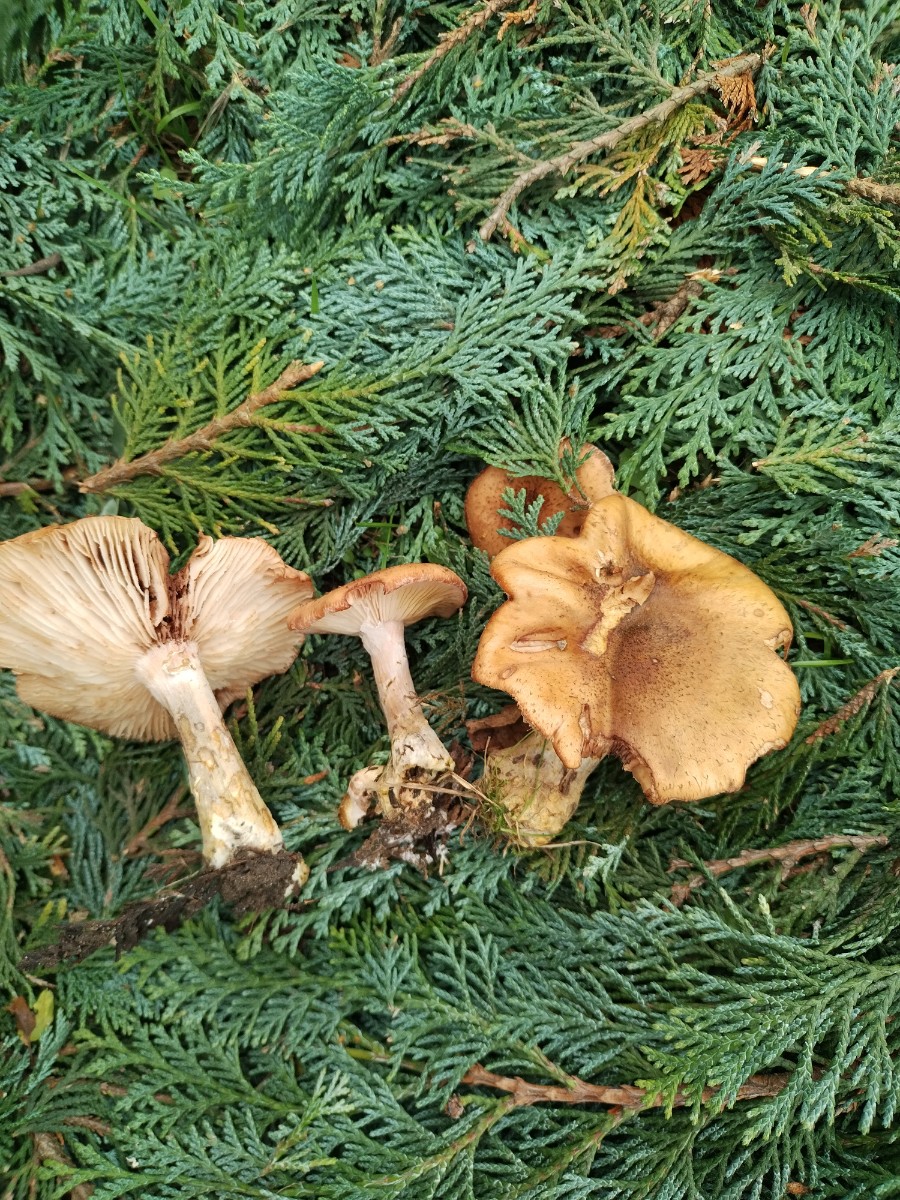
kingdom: Fungi
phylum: Basidiomycota
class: Agaricomycetes
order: Agaricales
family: Physalacriaceae
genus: Armillaria
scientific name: Armillaria lutea
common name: køllestokket honningsvamp
